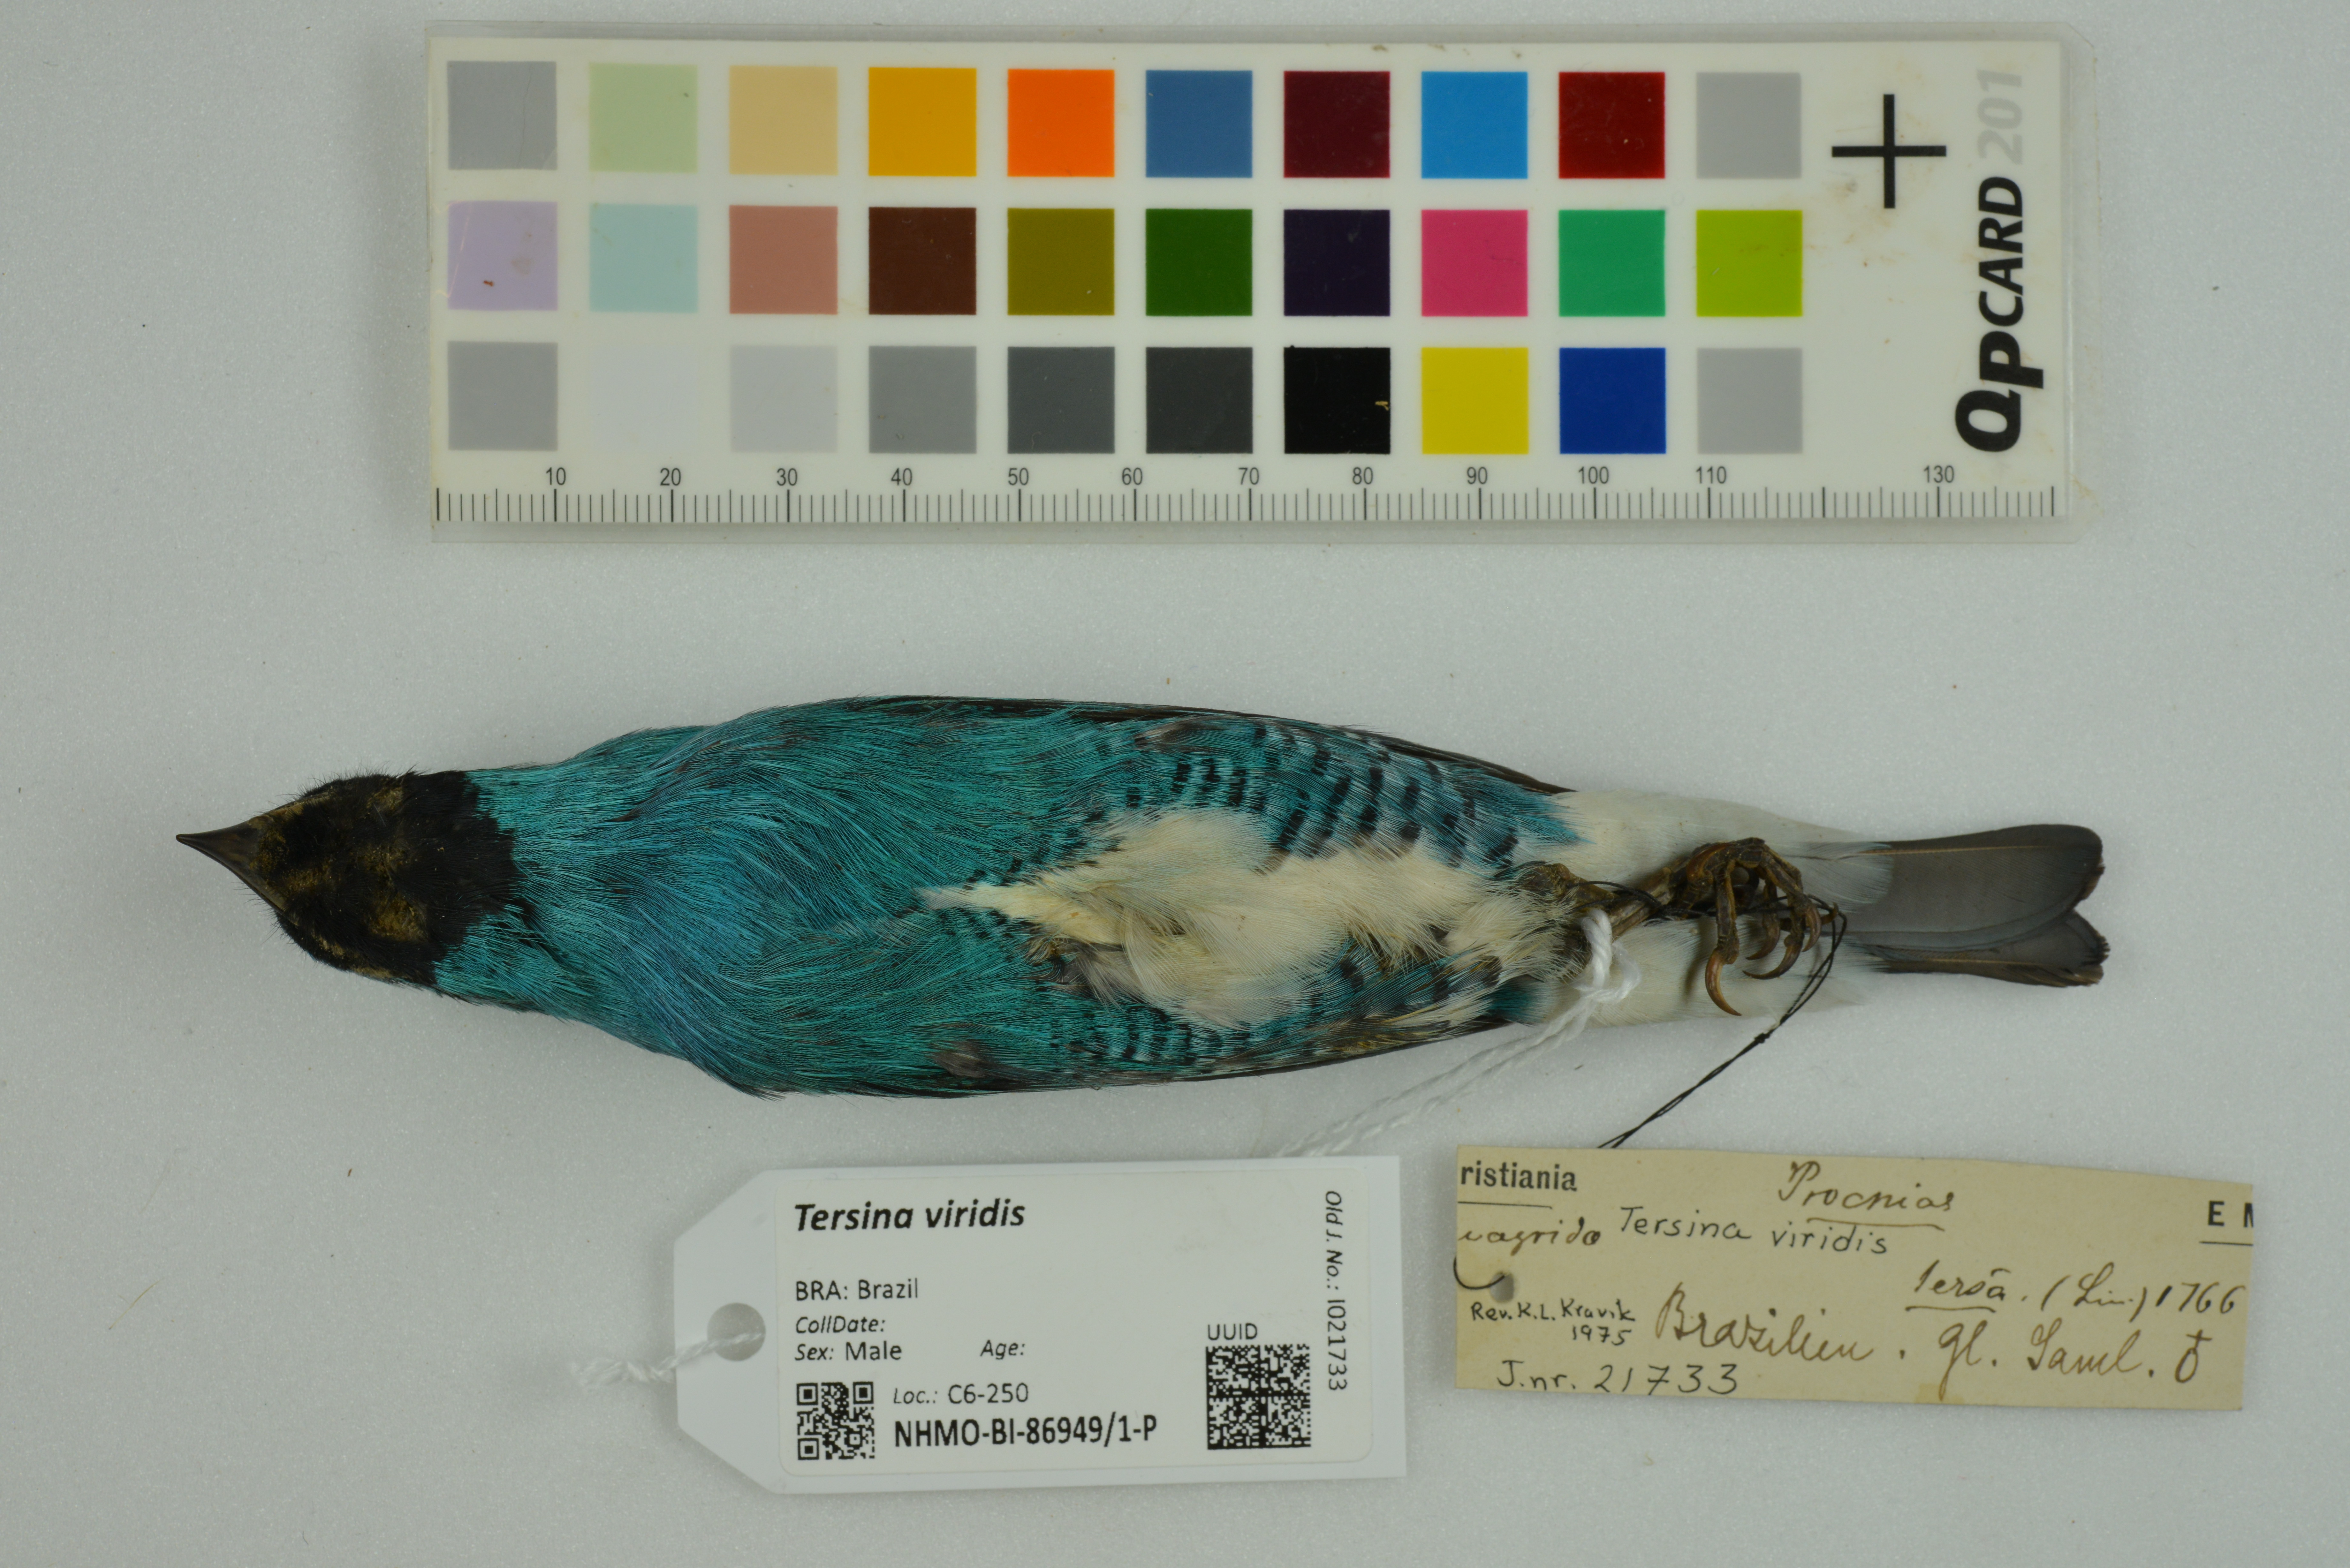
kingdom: Animalia
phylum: Chordata
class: Aves
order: Passeriformes
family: Thraupidae
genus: Tersina
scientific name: Tersina viridis
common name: Swallow tanager
